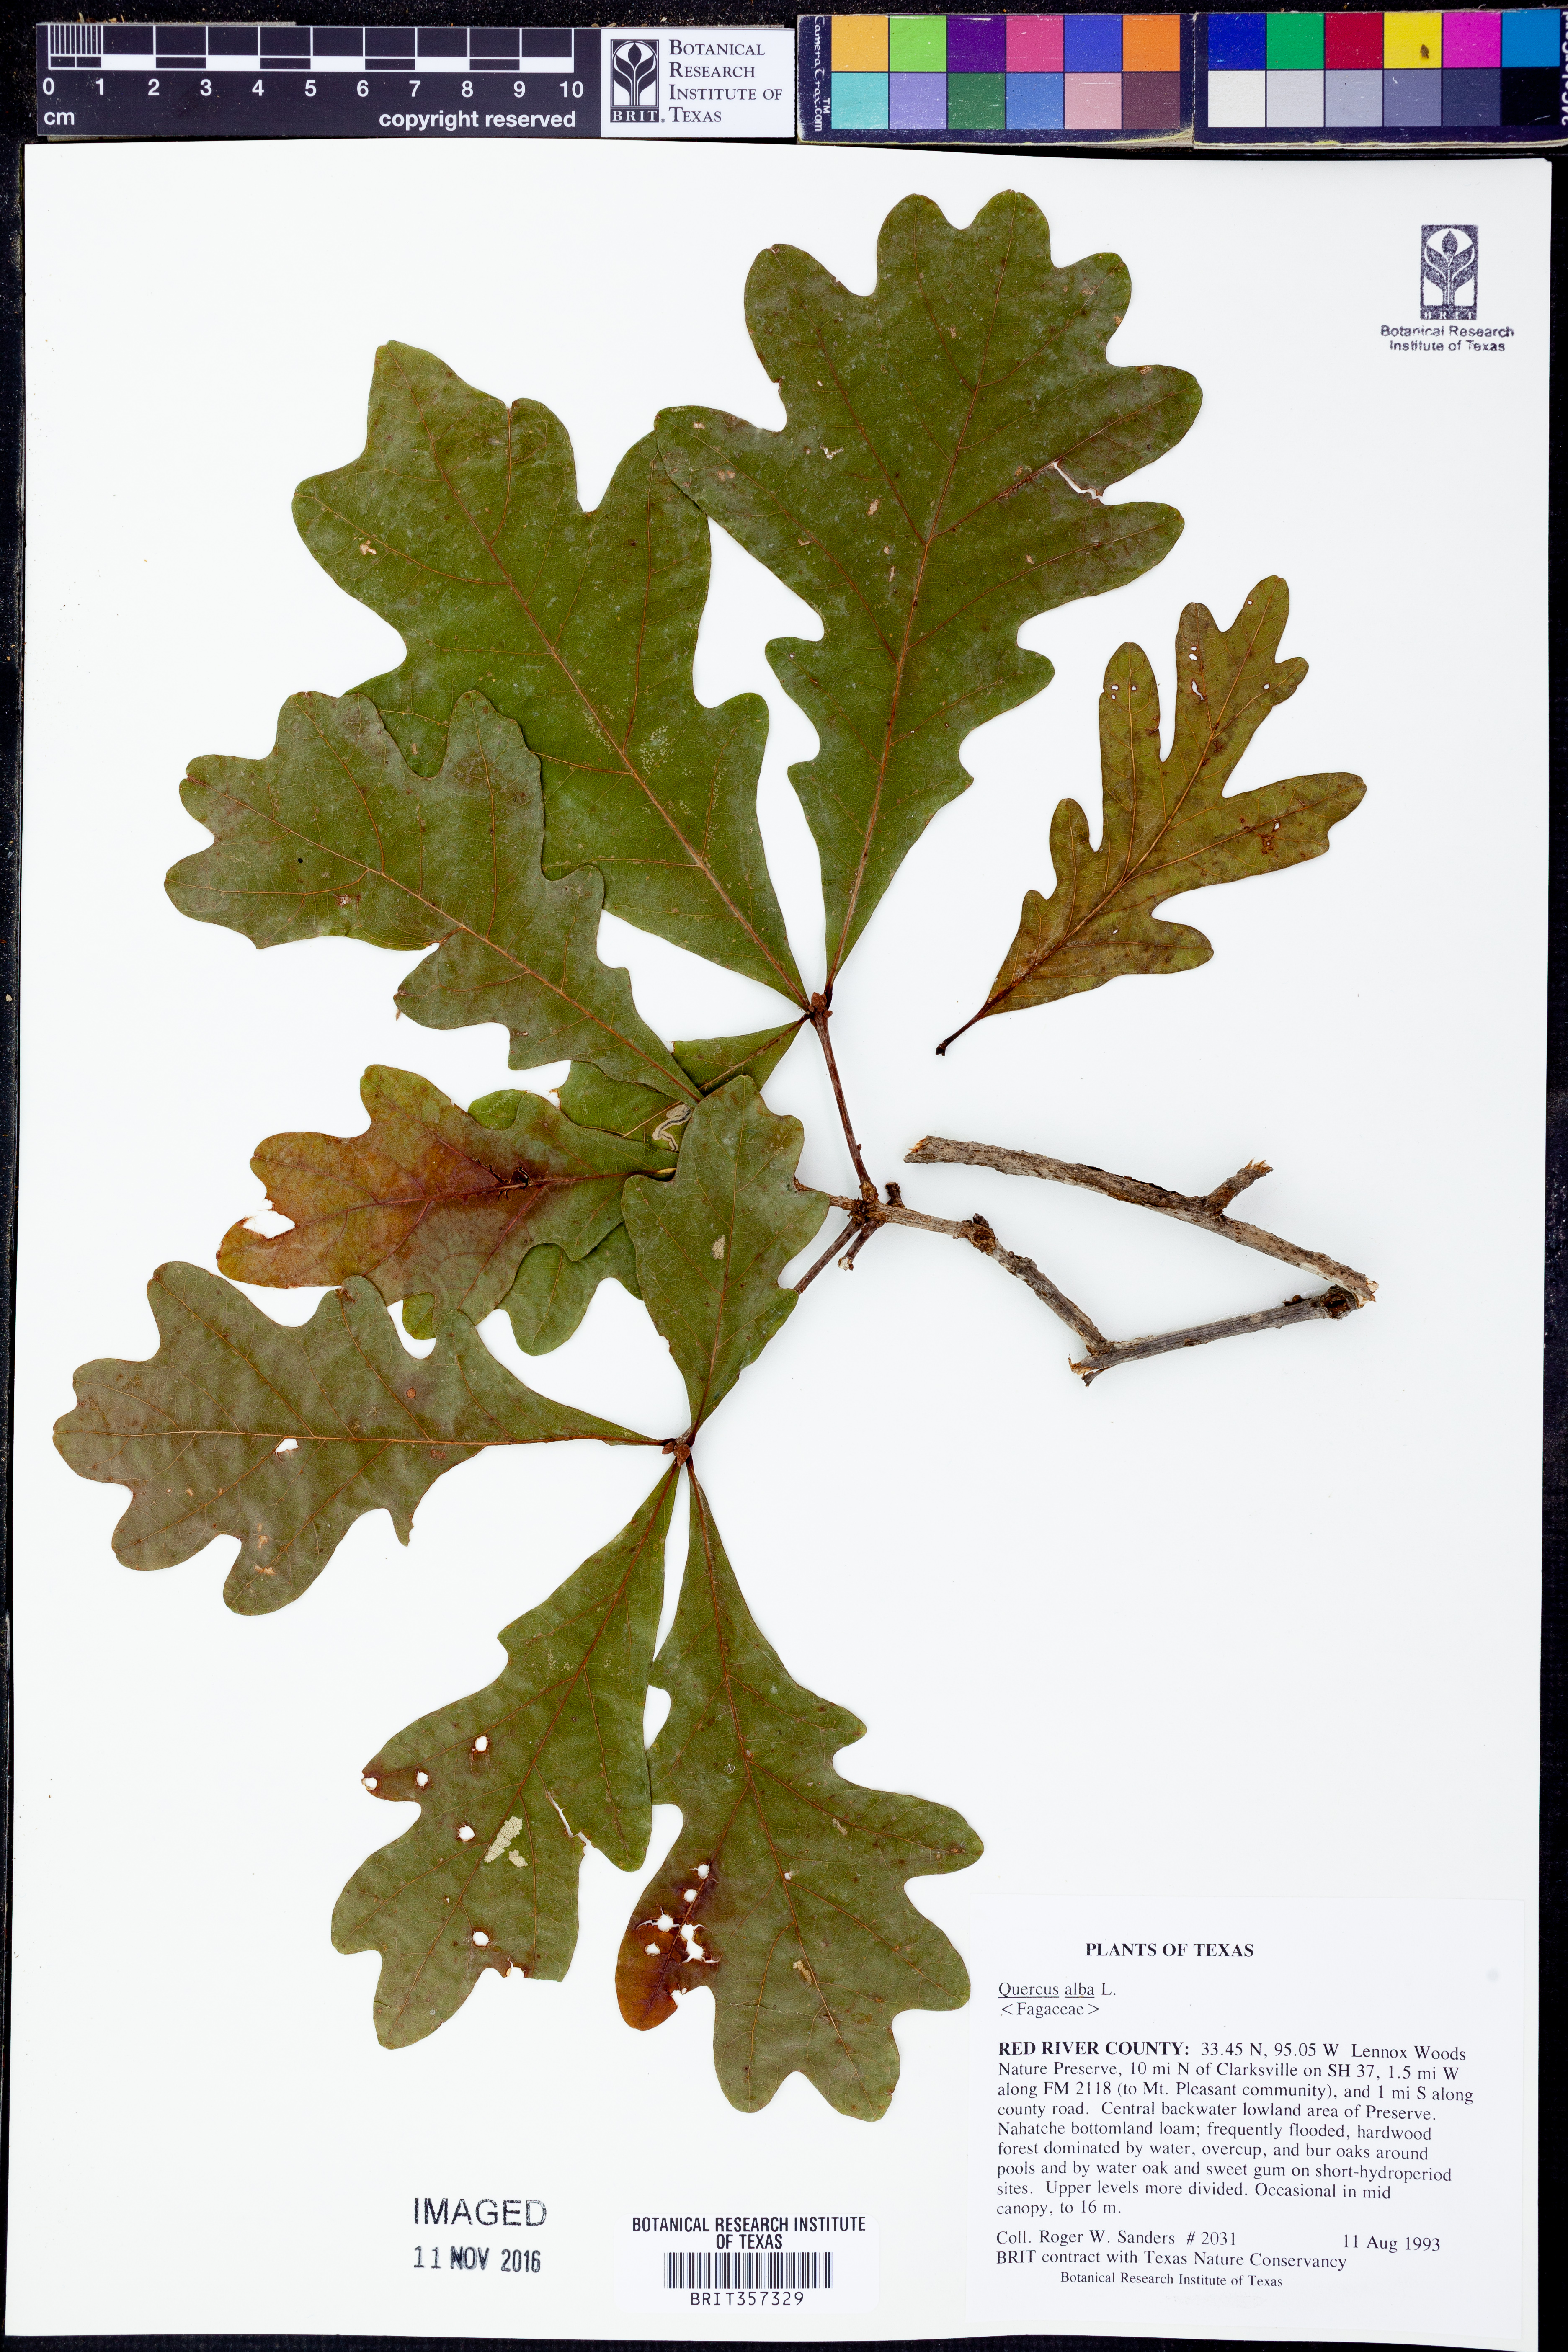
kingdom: Plantae
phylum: Tracheophyta
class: Magnoliopsida
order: Fagales
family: Fagaceae
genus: Quercus
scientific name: Quercus alba
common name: White oak
